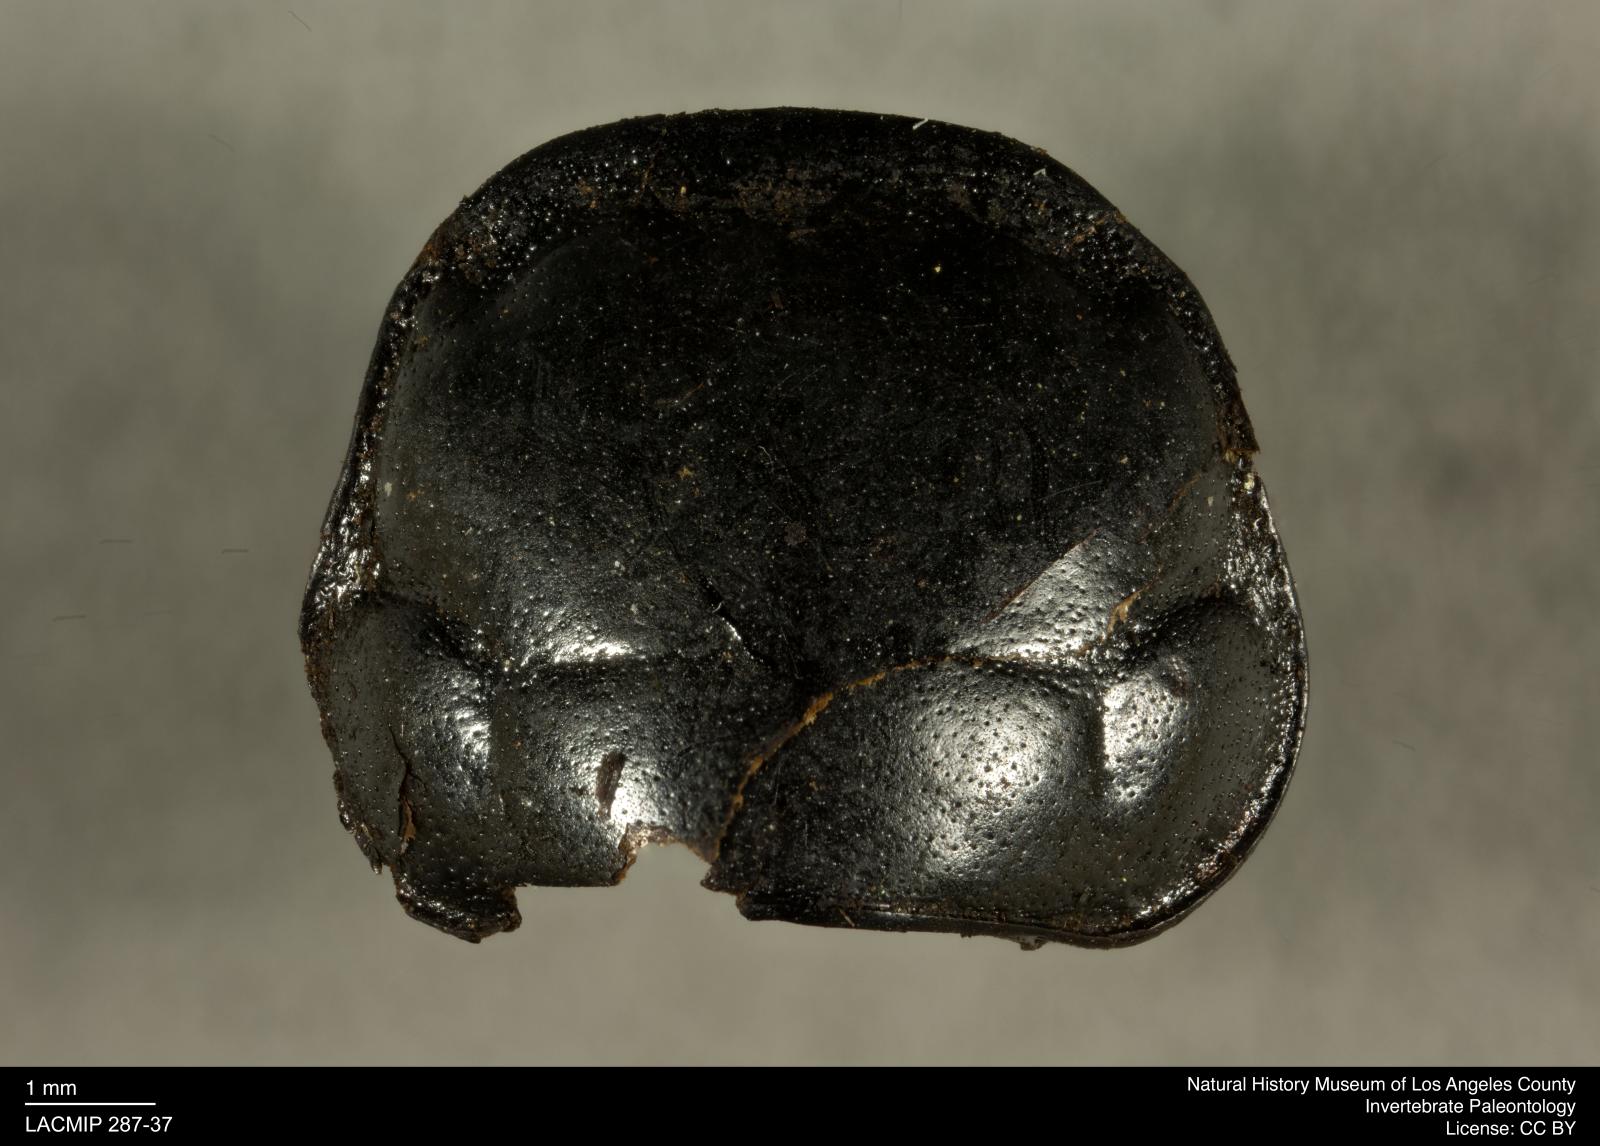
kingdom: Animalia
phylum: Arthropoda
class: Insecta
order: Coleoptera
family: Staphylinidae
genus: Nicrophorus
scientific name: Nicrophorus marginatus
